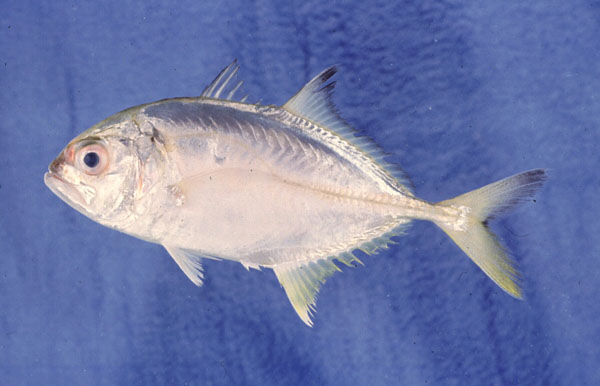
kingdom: Animalia
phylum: Chordata
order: Perciformes
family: Carangidae
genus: Caranx
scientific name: Caranx sexfasciatus
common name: Bigeye trevally
